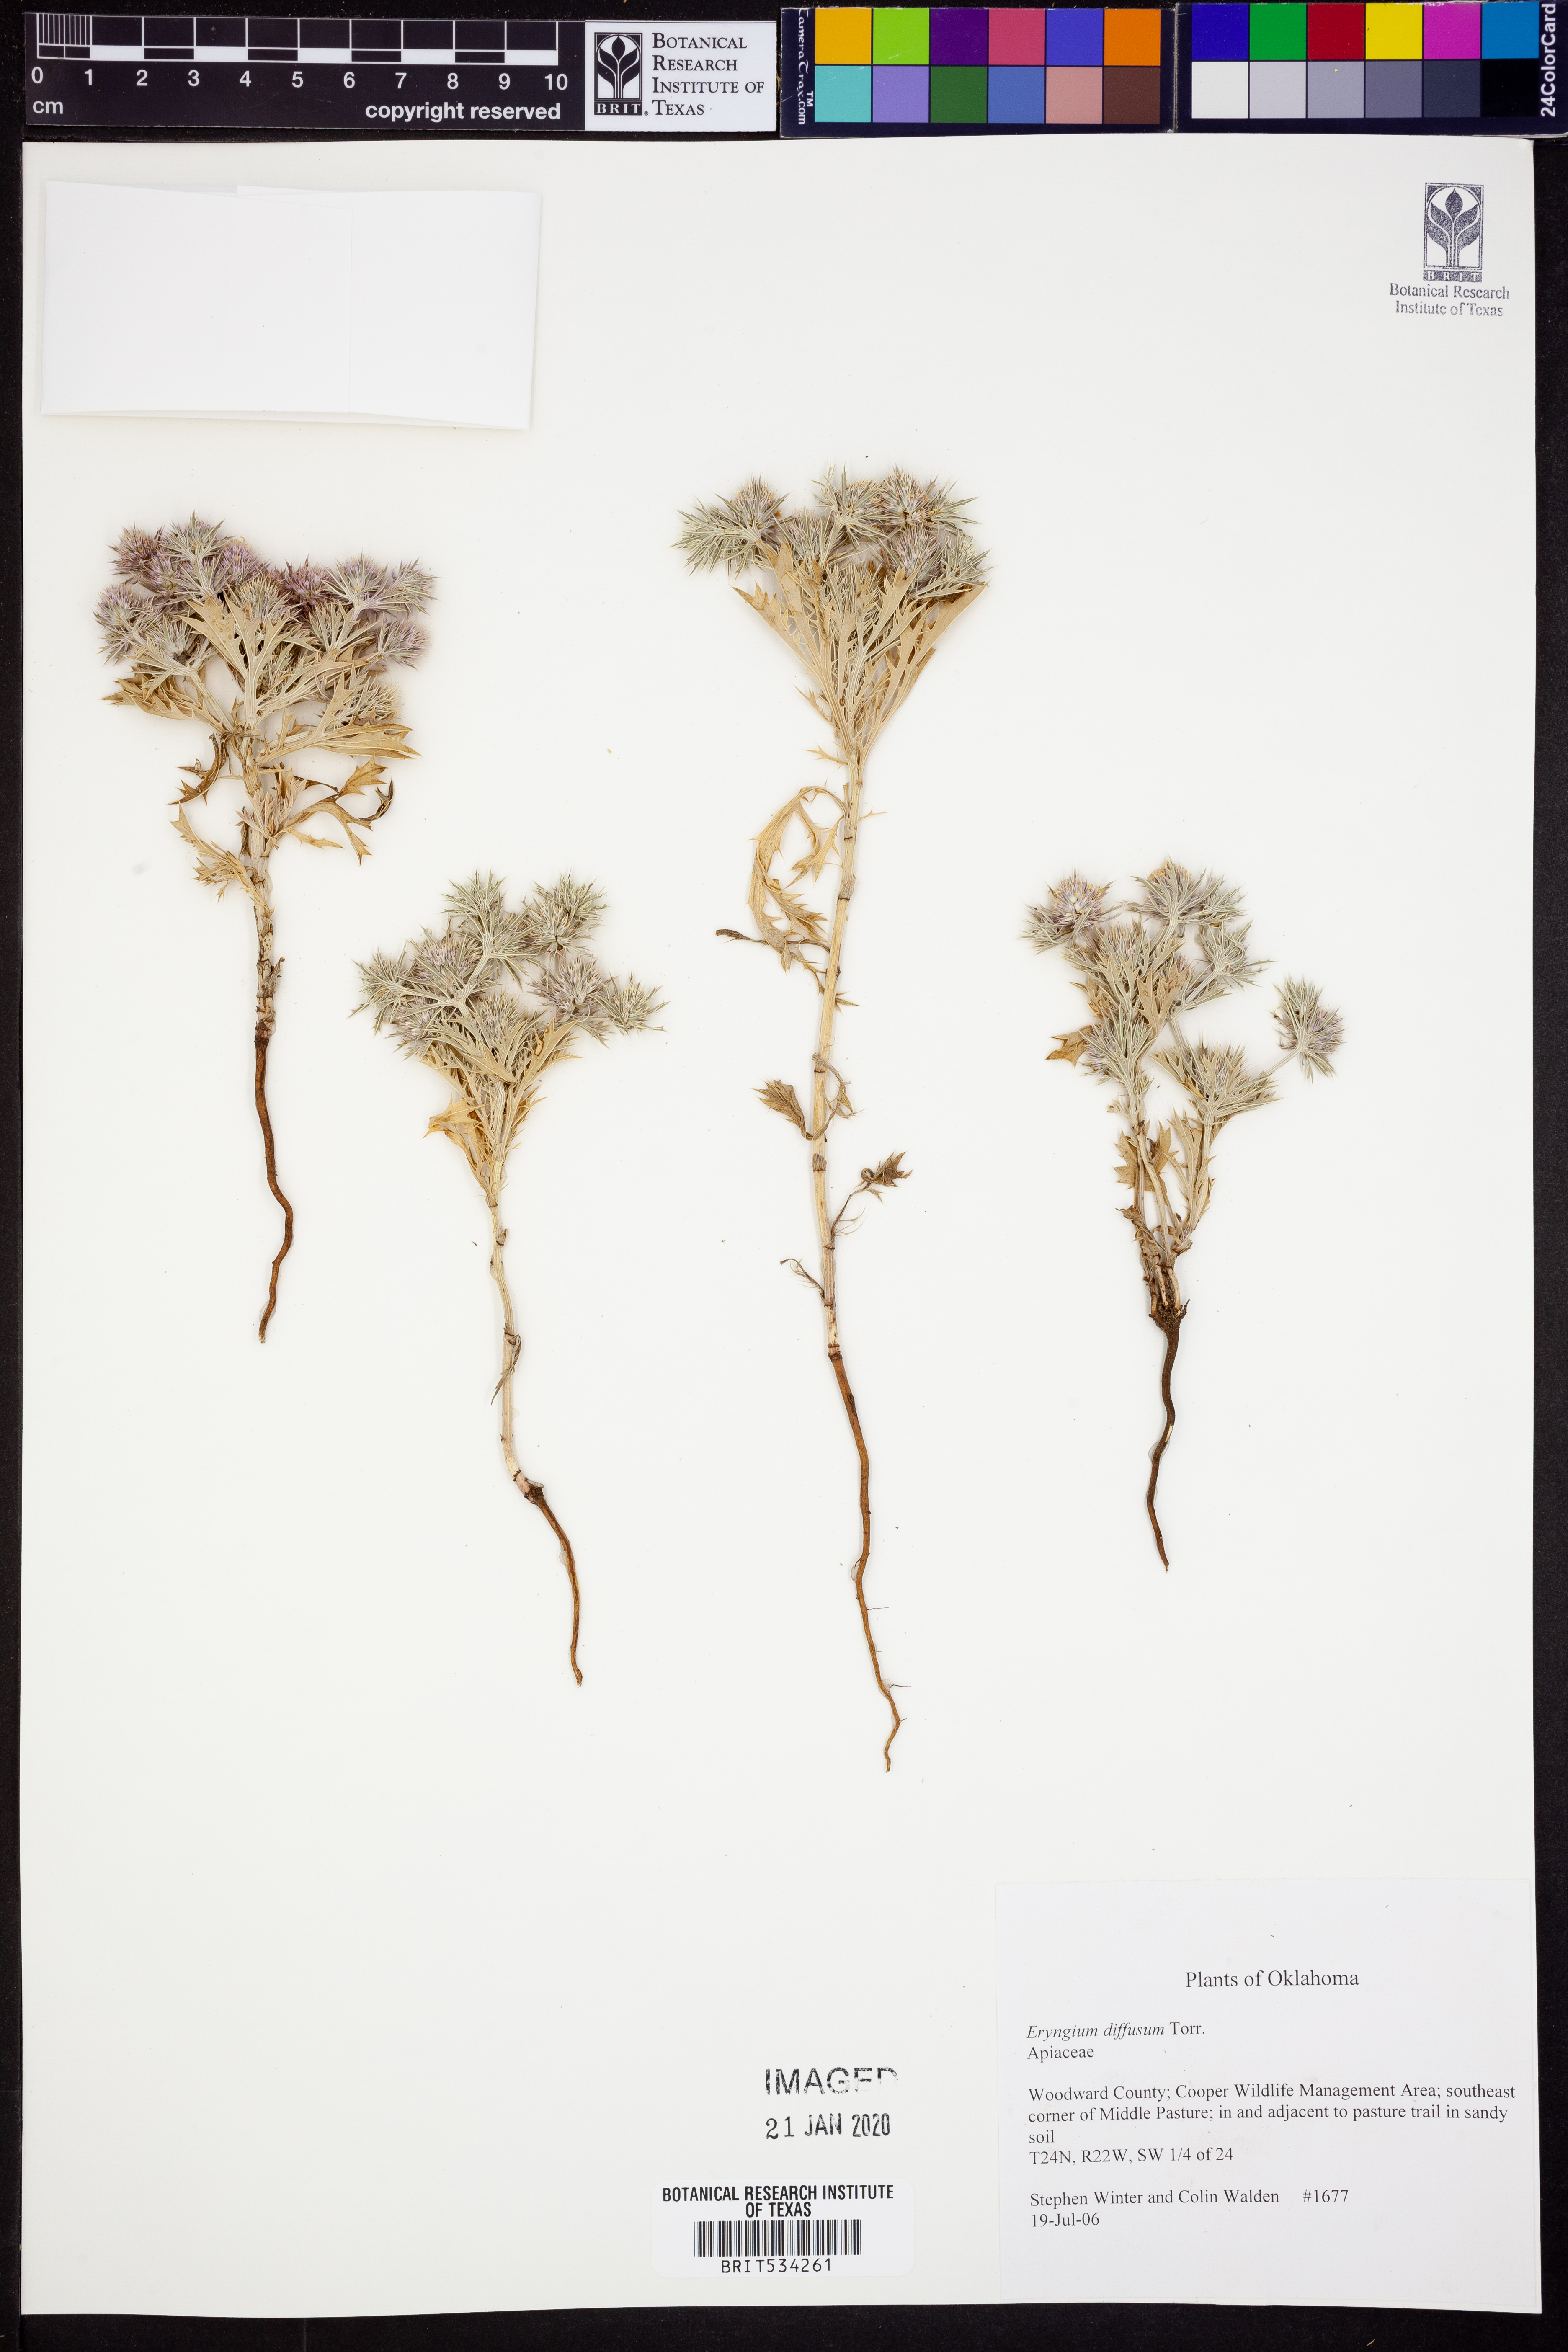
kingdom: Plantae
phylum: Tracheophyta
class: Magnoliopsida
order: Apiales
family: Apiaceae
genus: Eryngium
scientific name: Eryngium diffusum
